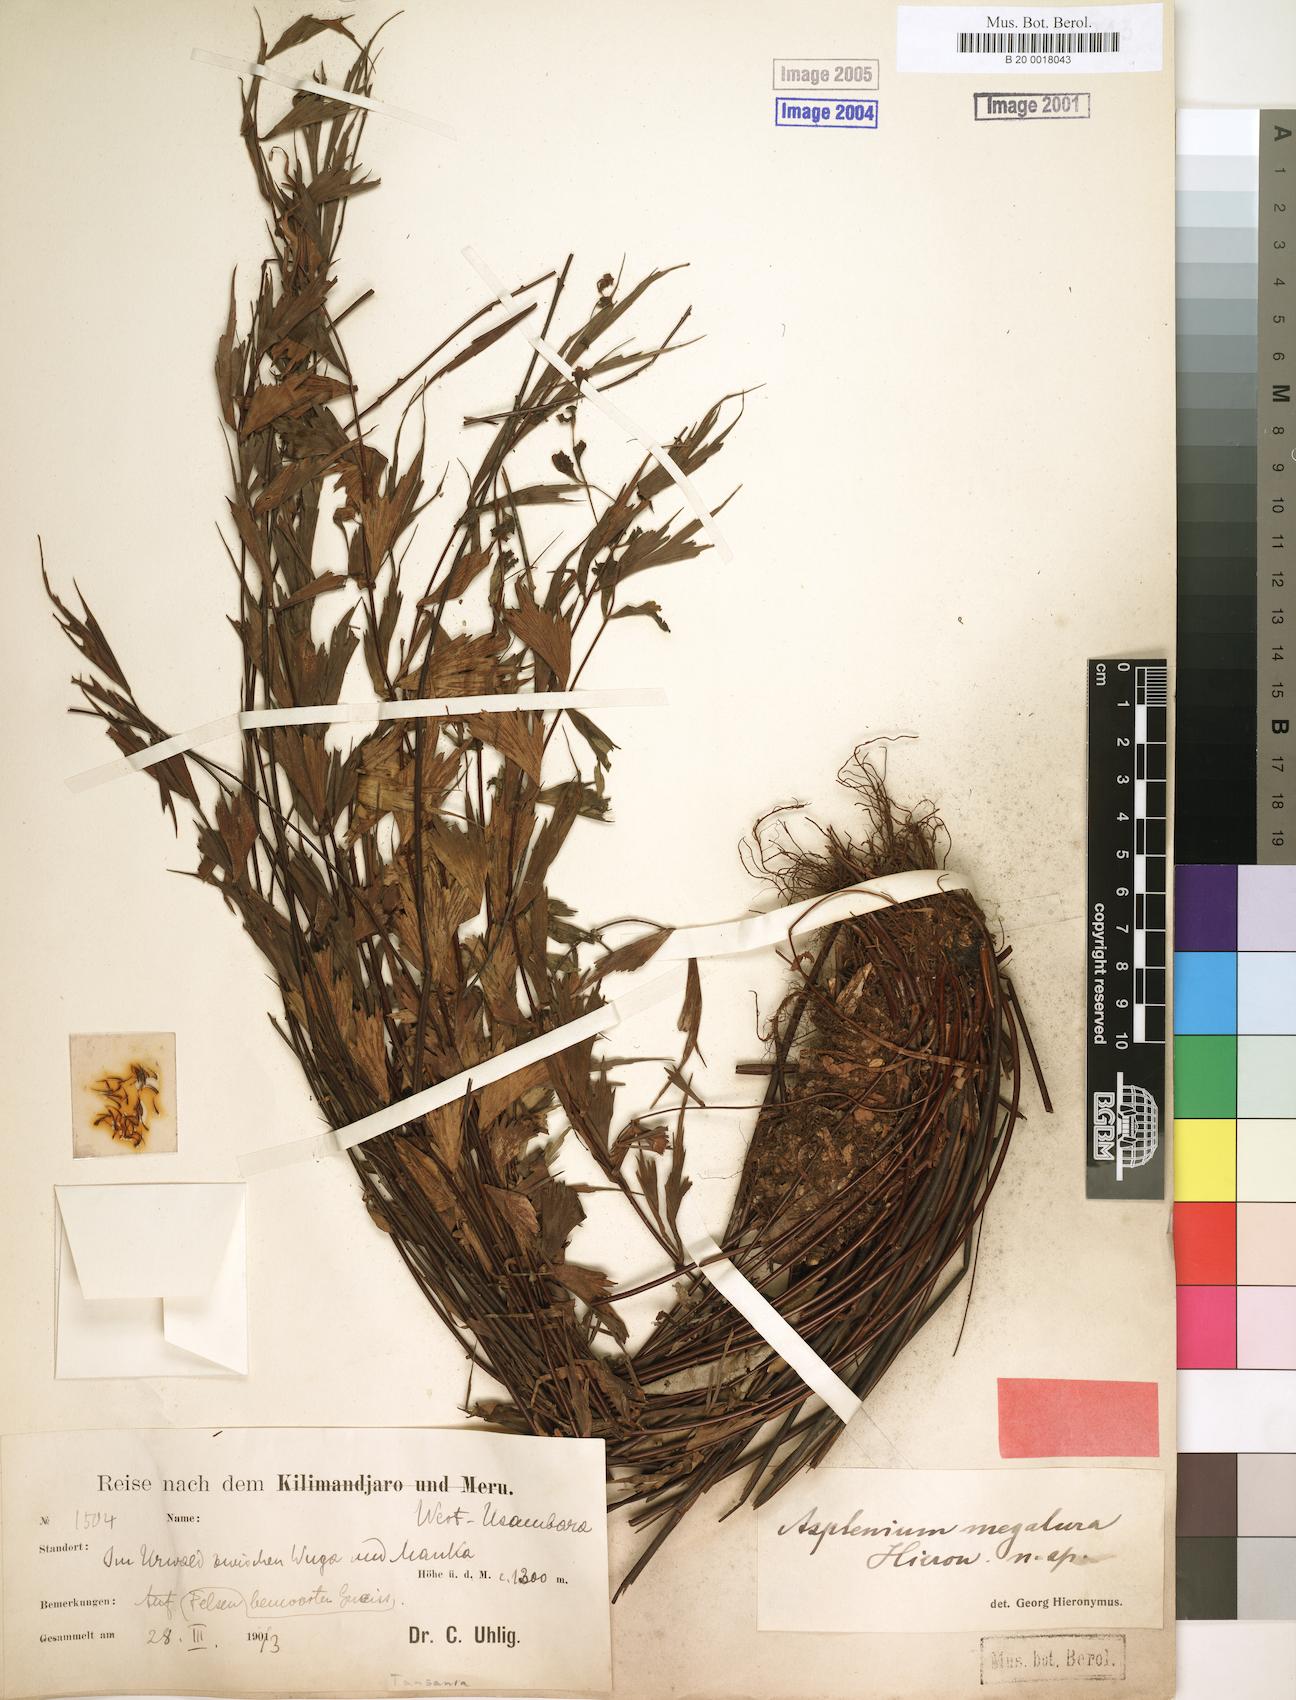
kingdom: Plantae
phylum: Tracheophyta
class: Polypodiopsida
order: Polypodiales
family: Aspleniaceae
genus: Asplenium
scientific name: Asplenium megalura
